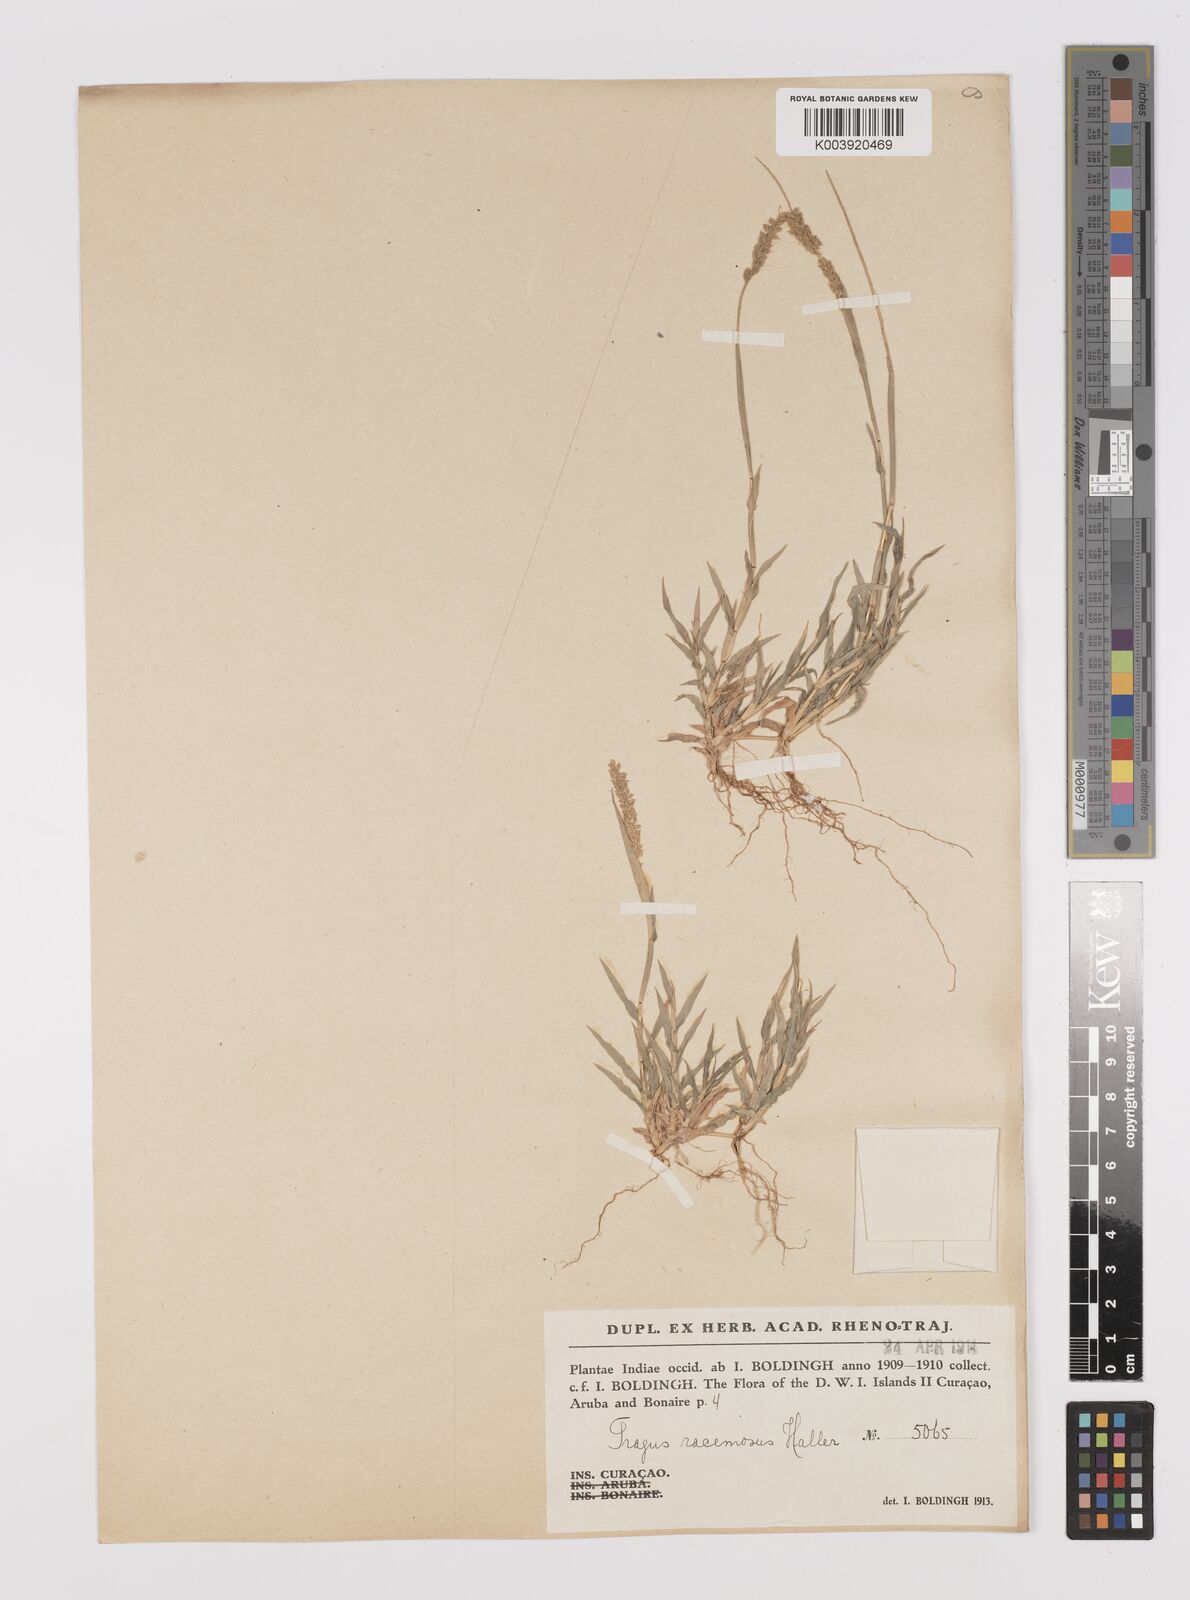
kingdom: Plantae
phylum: Tracheophyta
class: Liliopsida
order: Poales
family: Poaceae
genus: Tragus
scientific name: Tragus berteronianus
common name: African bur-grass
